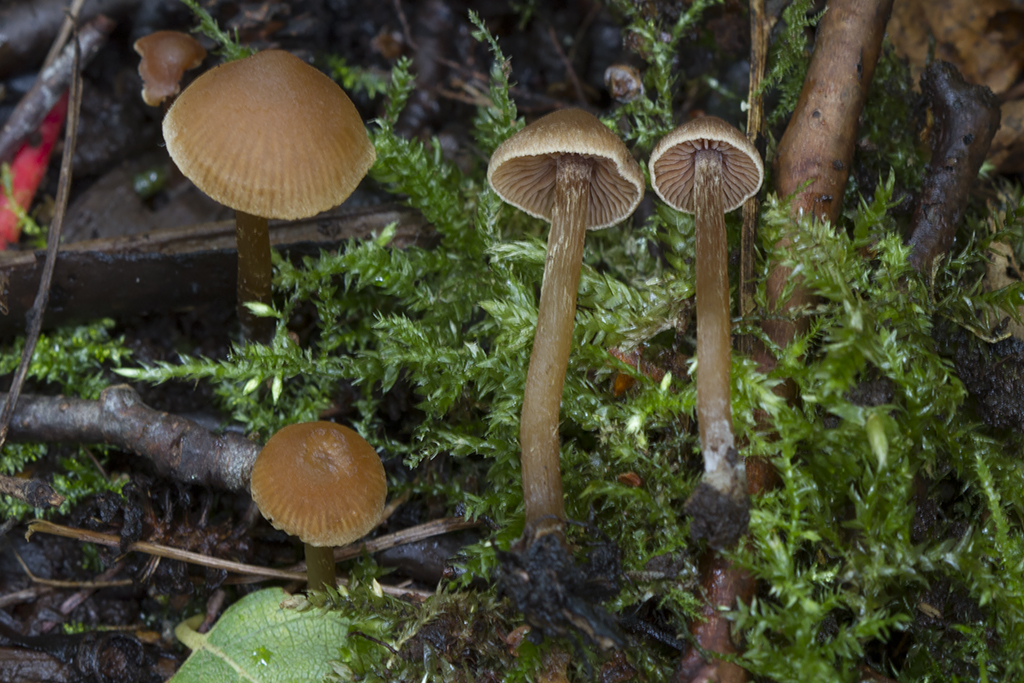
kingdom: Fungi
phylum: Basidiomycota
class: Agaricomycetes
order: Agaricales
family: Hymenogastraceae
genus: Naucoria
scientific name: Naucoria scolecina
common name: mørk elle-knaphat
